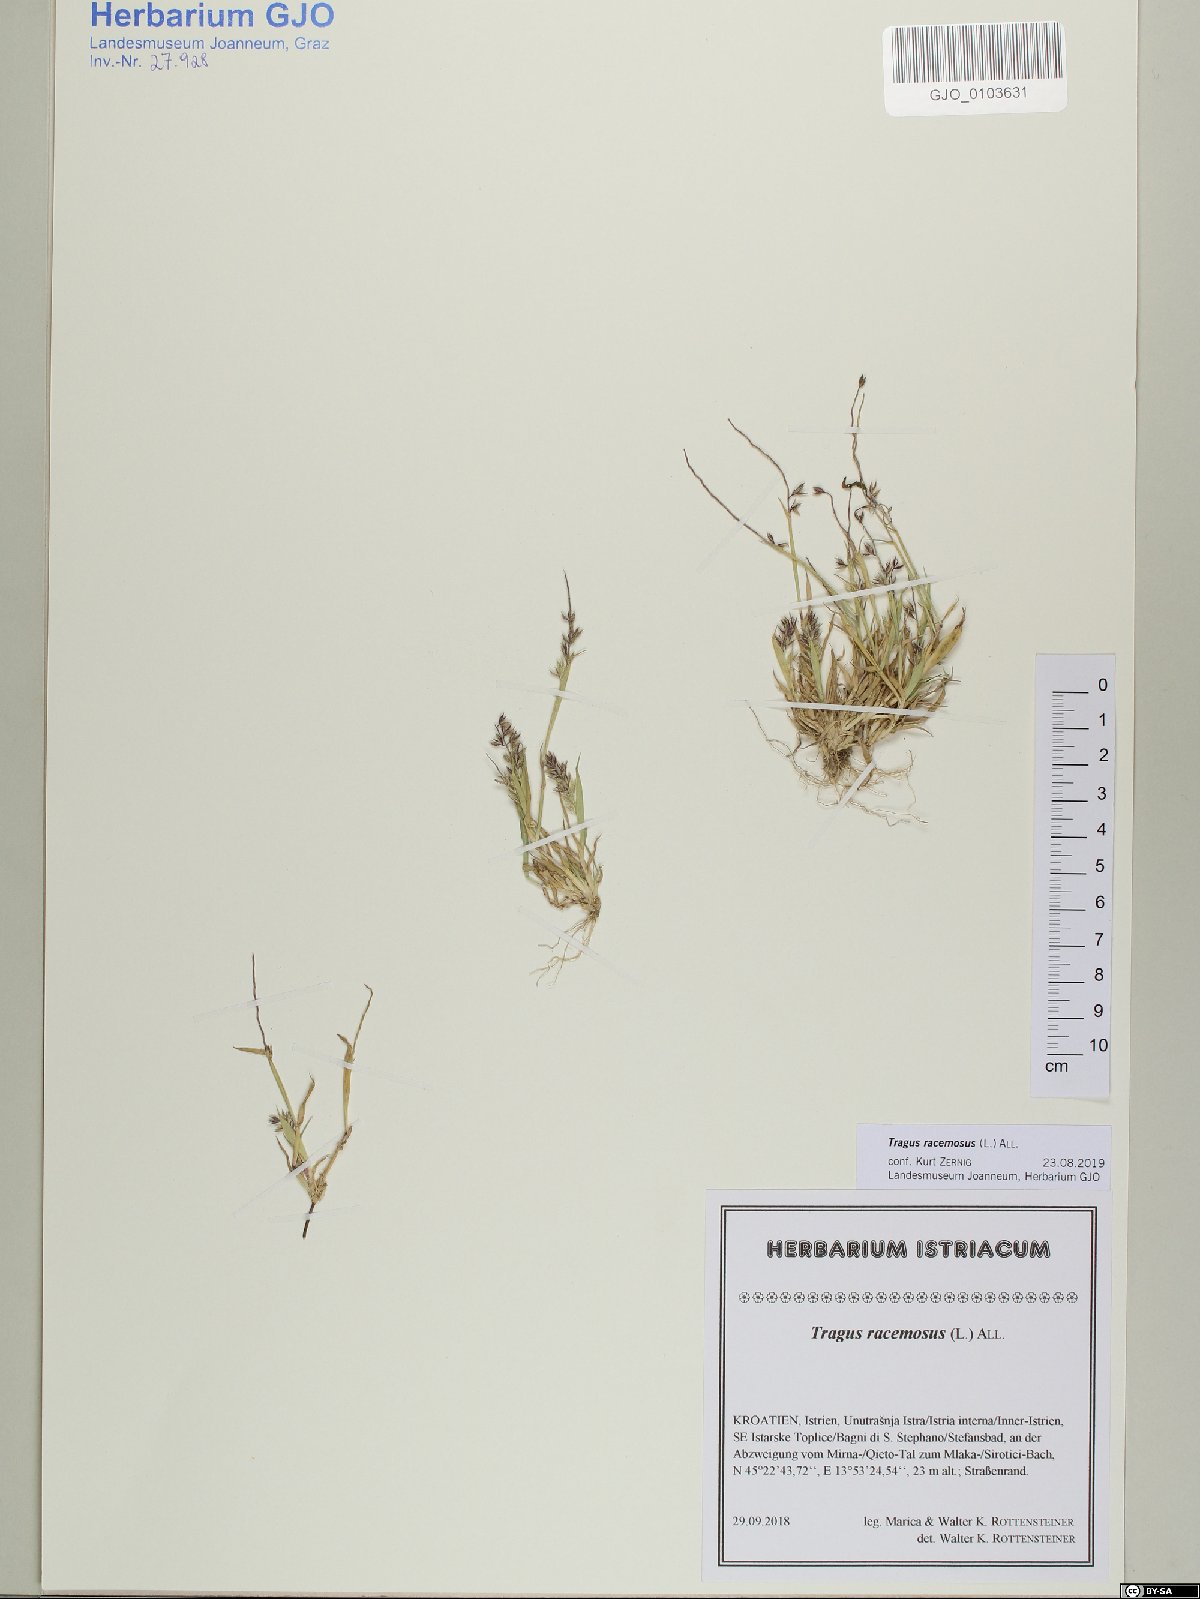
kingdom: Plantae
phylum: Tracheophyta
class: Liliopsida
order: Poales
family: Poaceae
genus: Tragus
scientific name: Tragus racemosus
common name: European bur-grass
